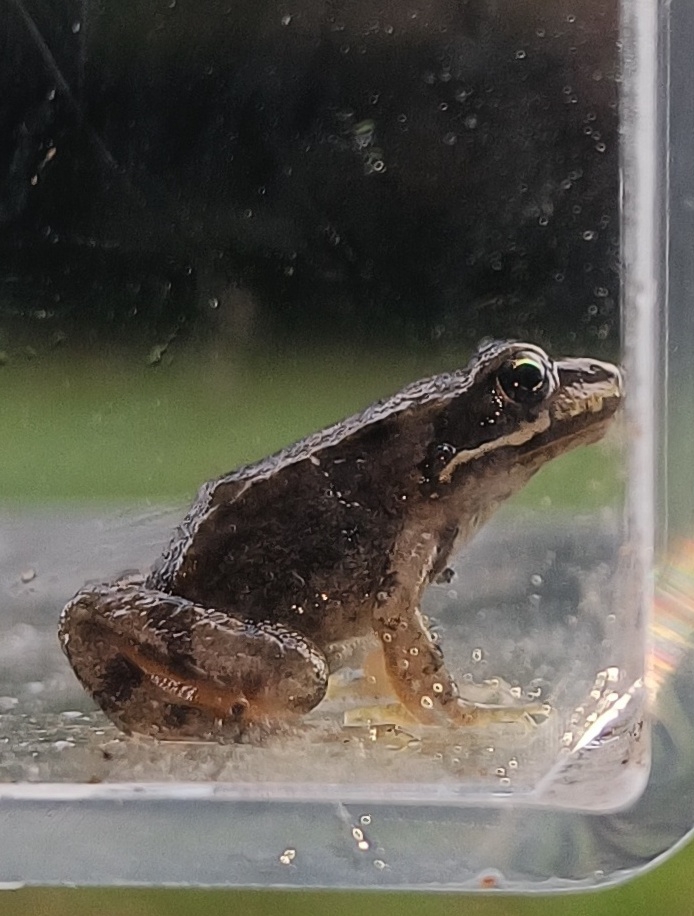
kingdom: Animalia
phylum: Chordata
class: Amphibia
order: Anura
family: Ranidae
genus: Rana
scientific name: Rana temporaria
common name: Butsnudet frø
